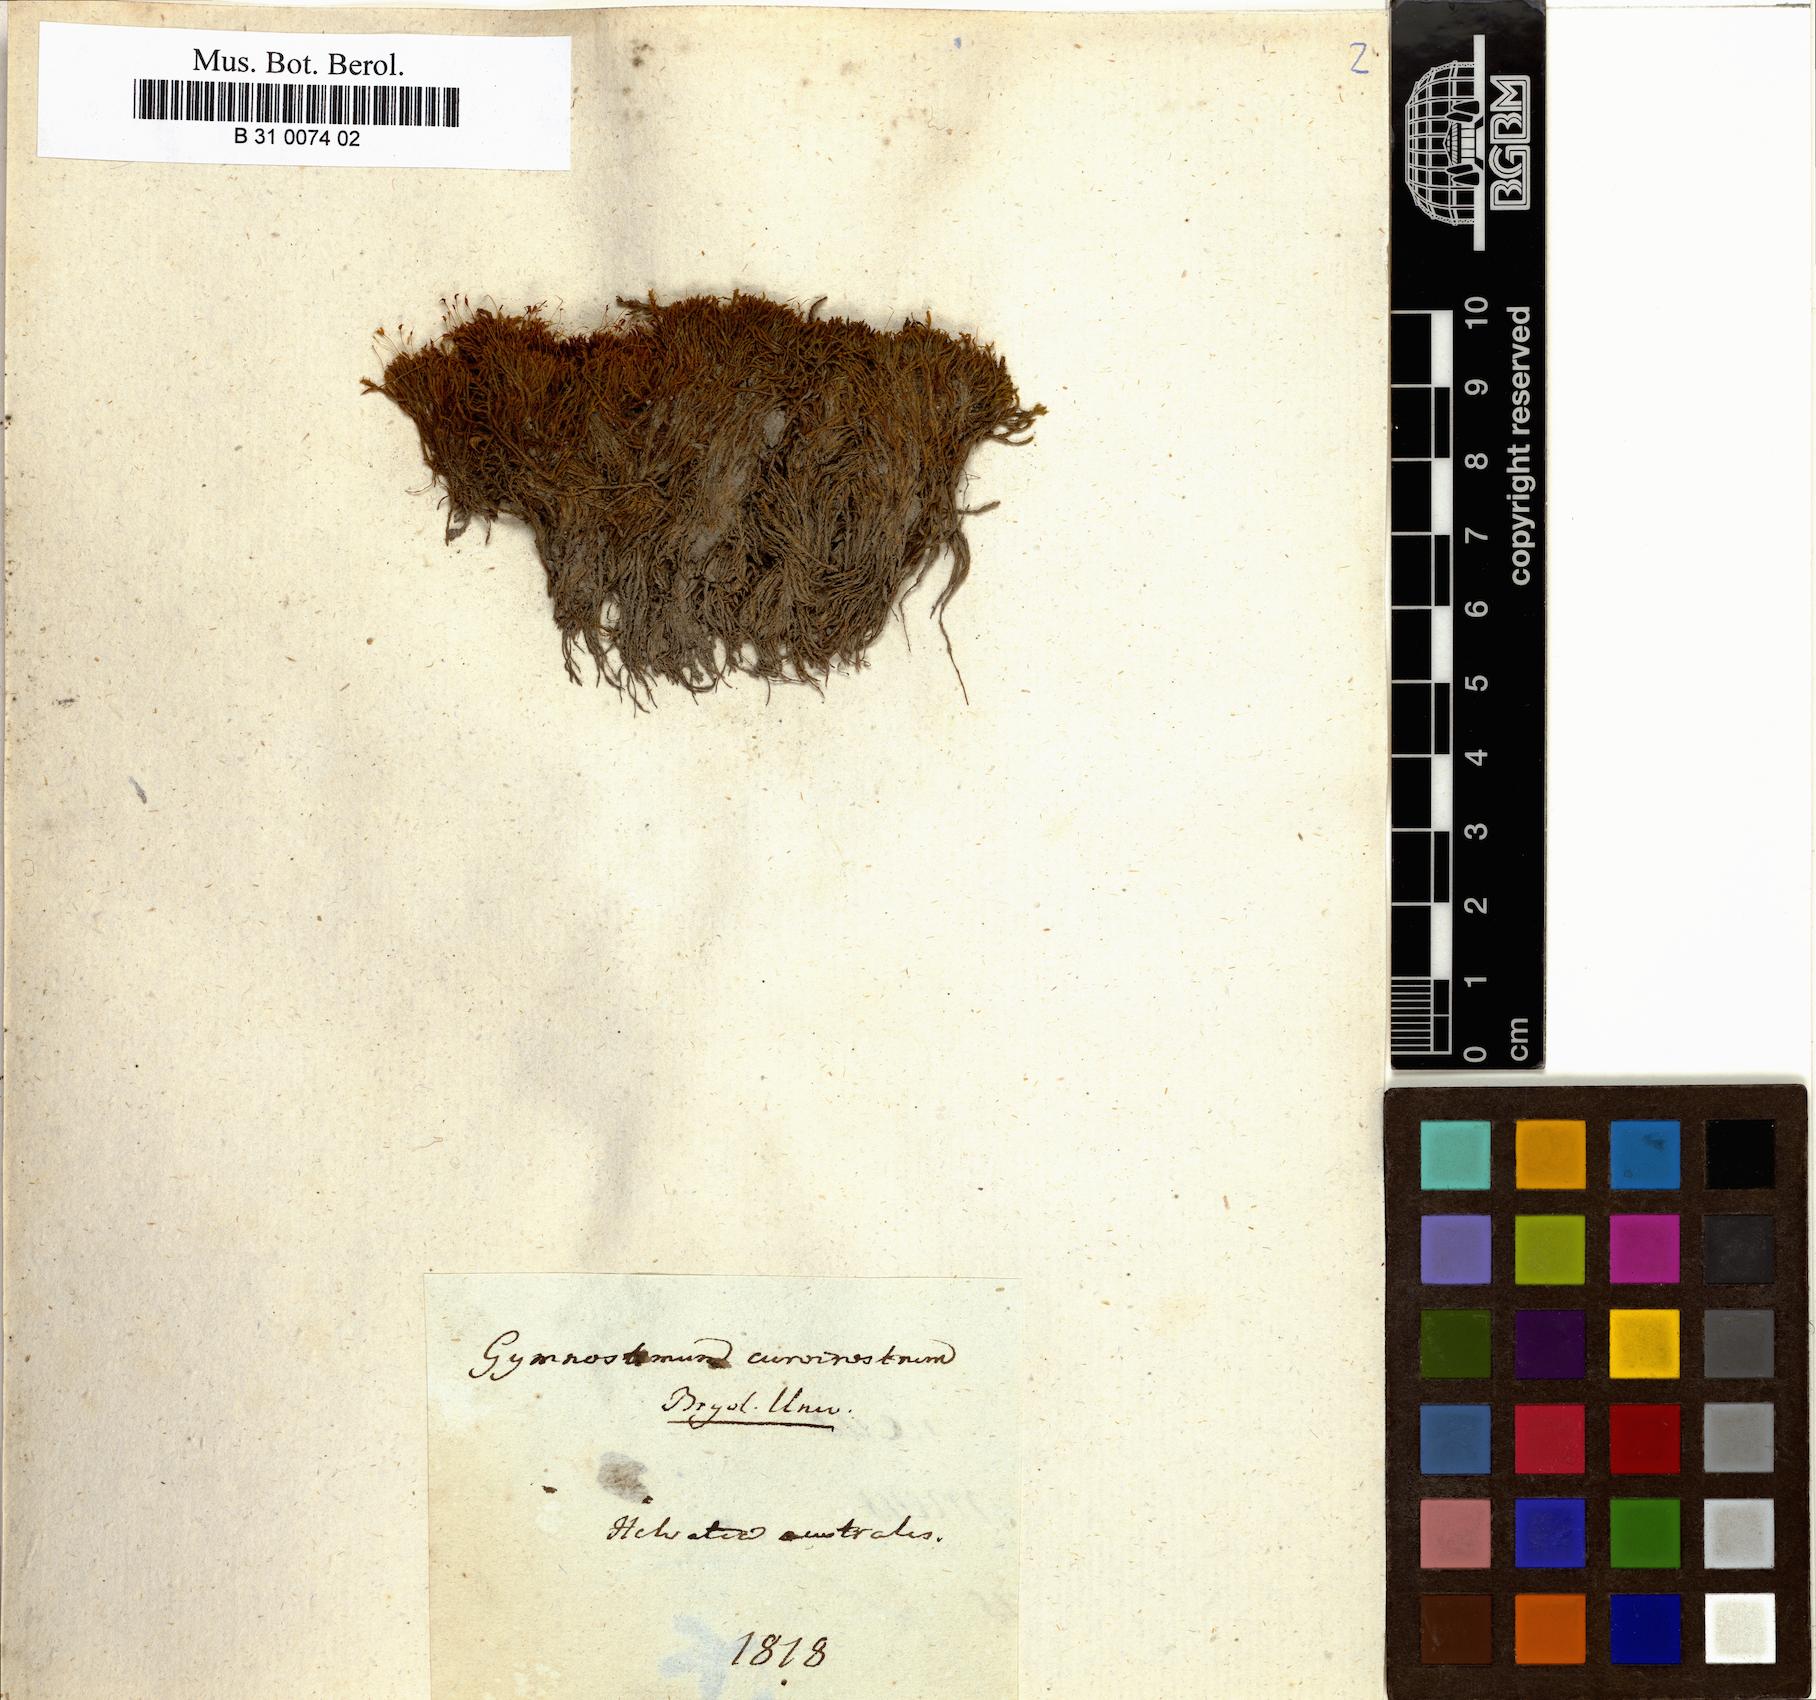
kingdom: Plantae
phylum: Bryophyta
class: Bryopsida
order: Pottiales
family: Pottiaceae
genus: Hymenostylium
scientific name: Hymenostylium recurvirostrum
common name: Hook-beak tufa-moss
